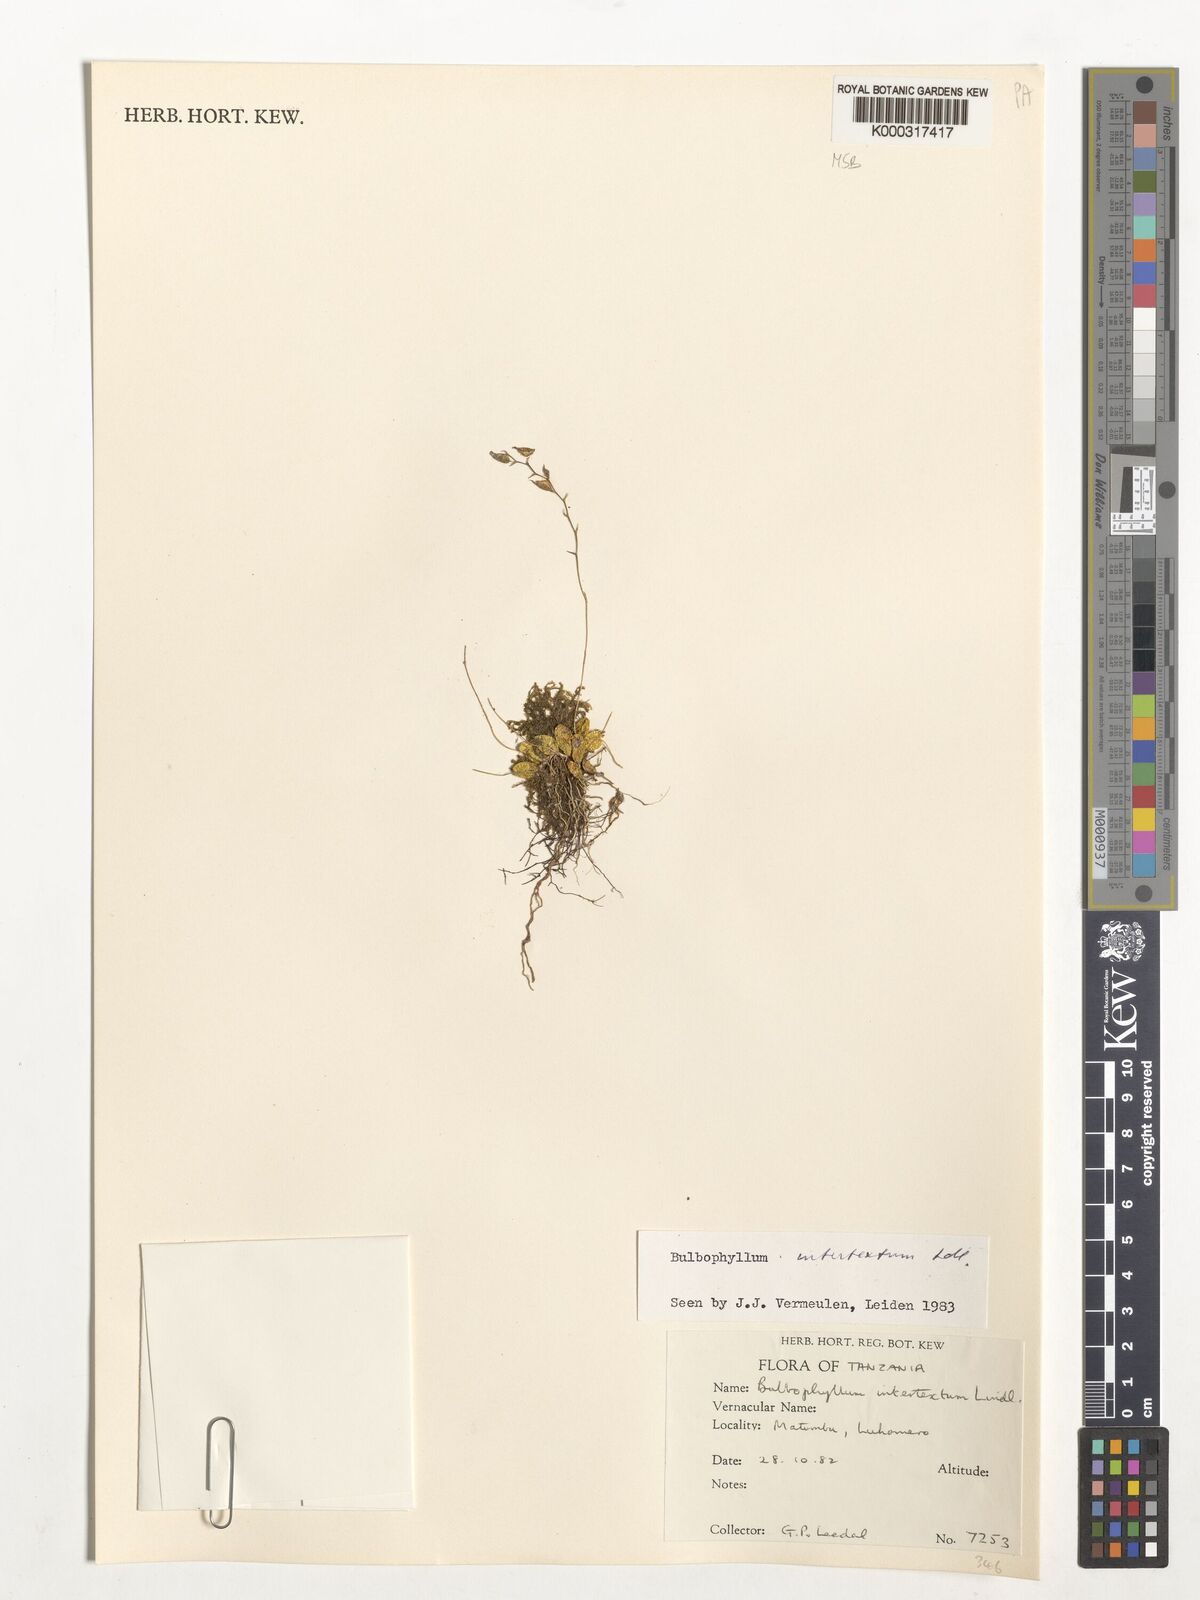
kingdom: Plantae
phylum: Tracheophyta
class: Liliopsida
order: Asparagales
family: Orchidaceae
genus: Bulbophyllum
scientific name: Bulbophyllum intertextum
